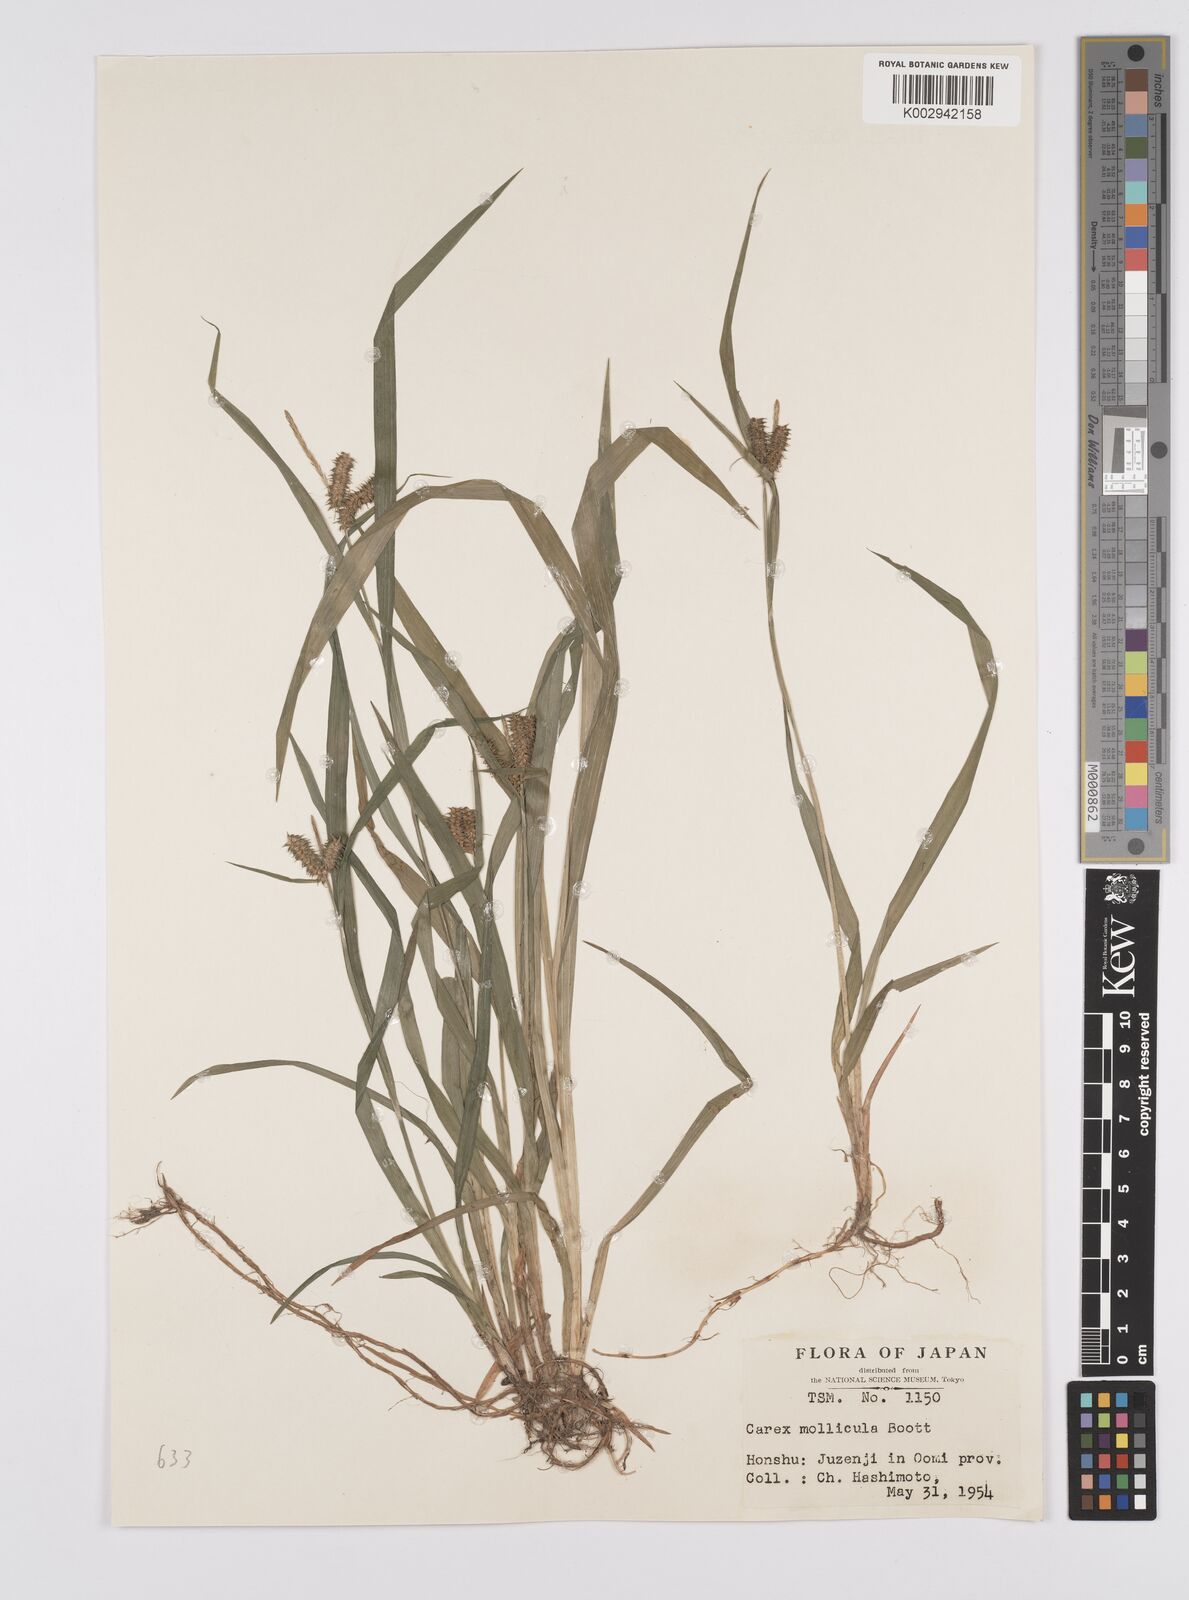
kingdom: Plantae
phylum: Tracheophyta
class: Liliopsida
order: Poales
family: Cyperaceae
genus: Carex
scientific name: Carex mollicula
